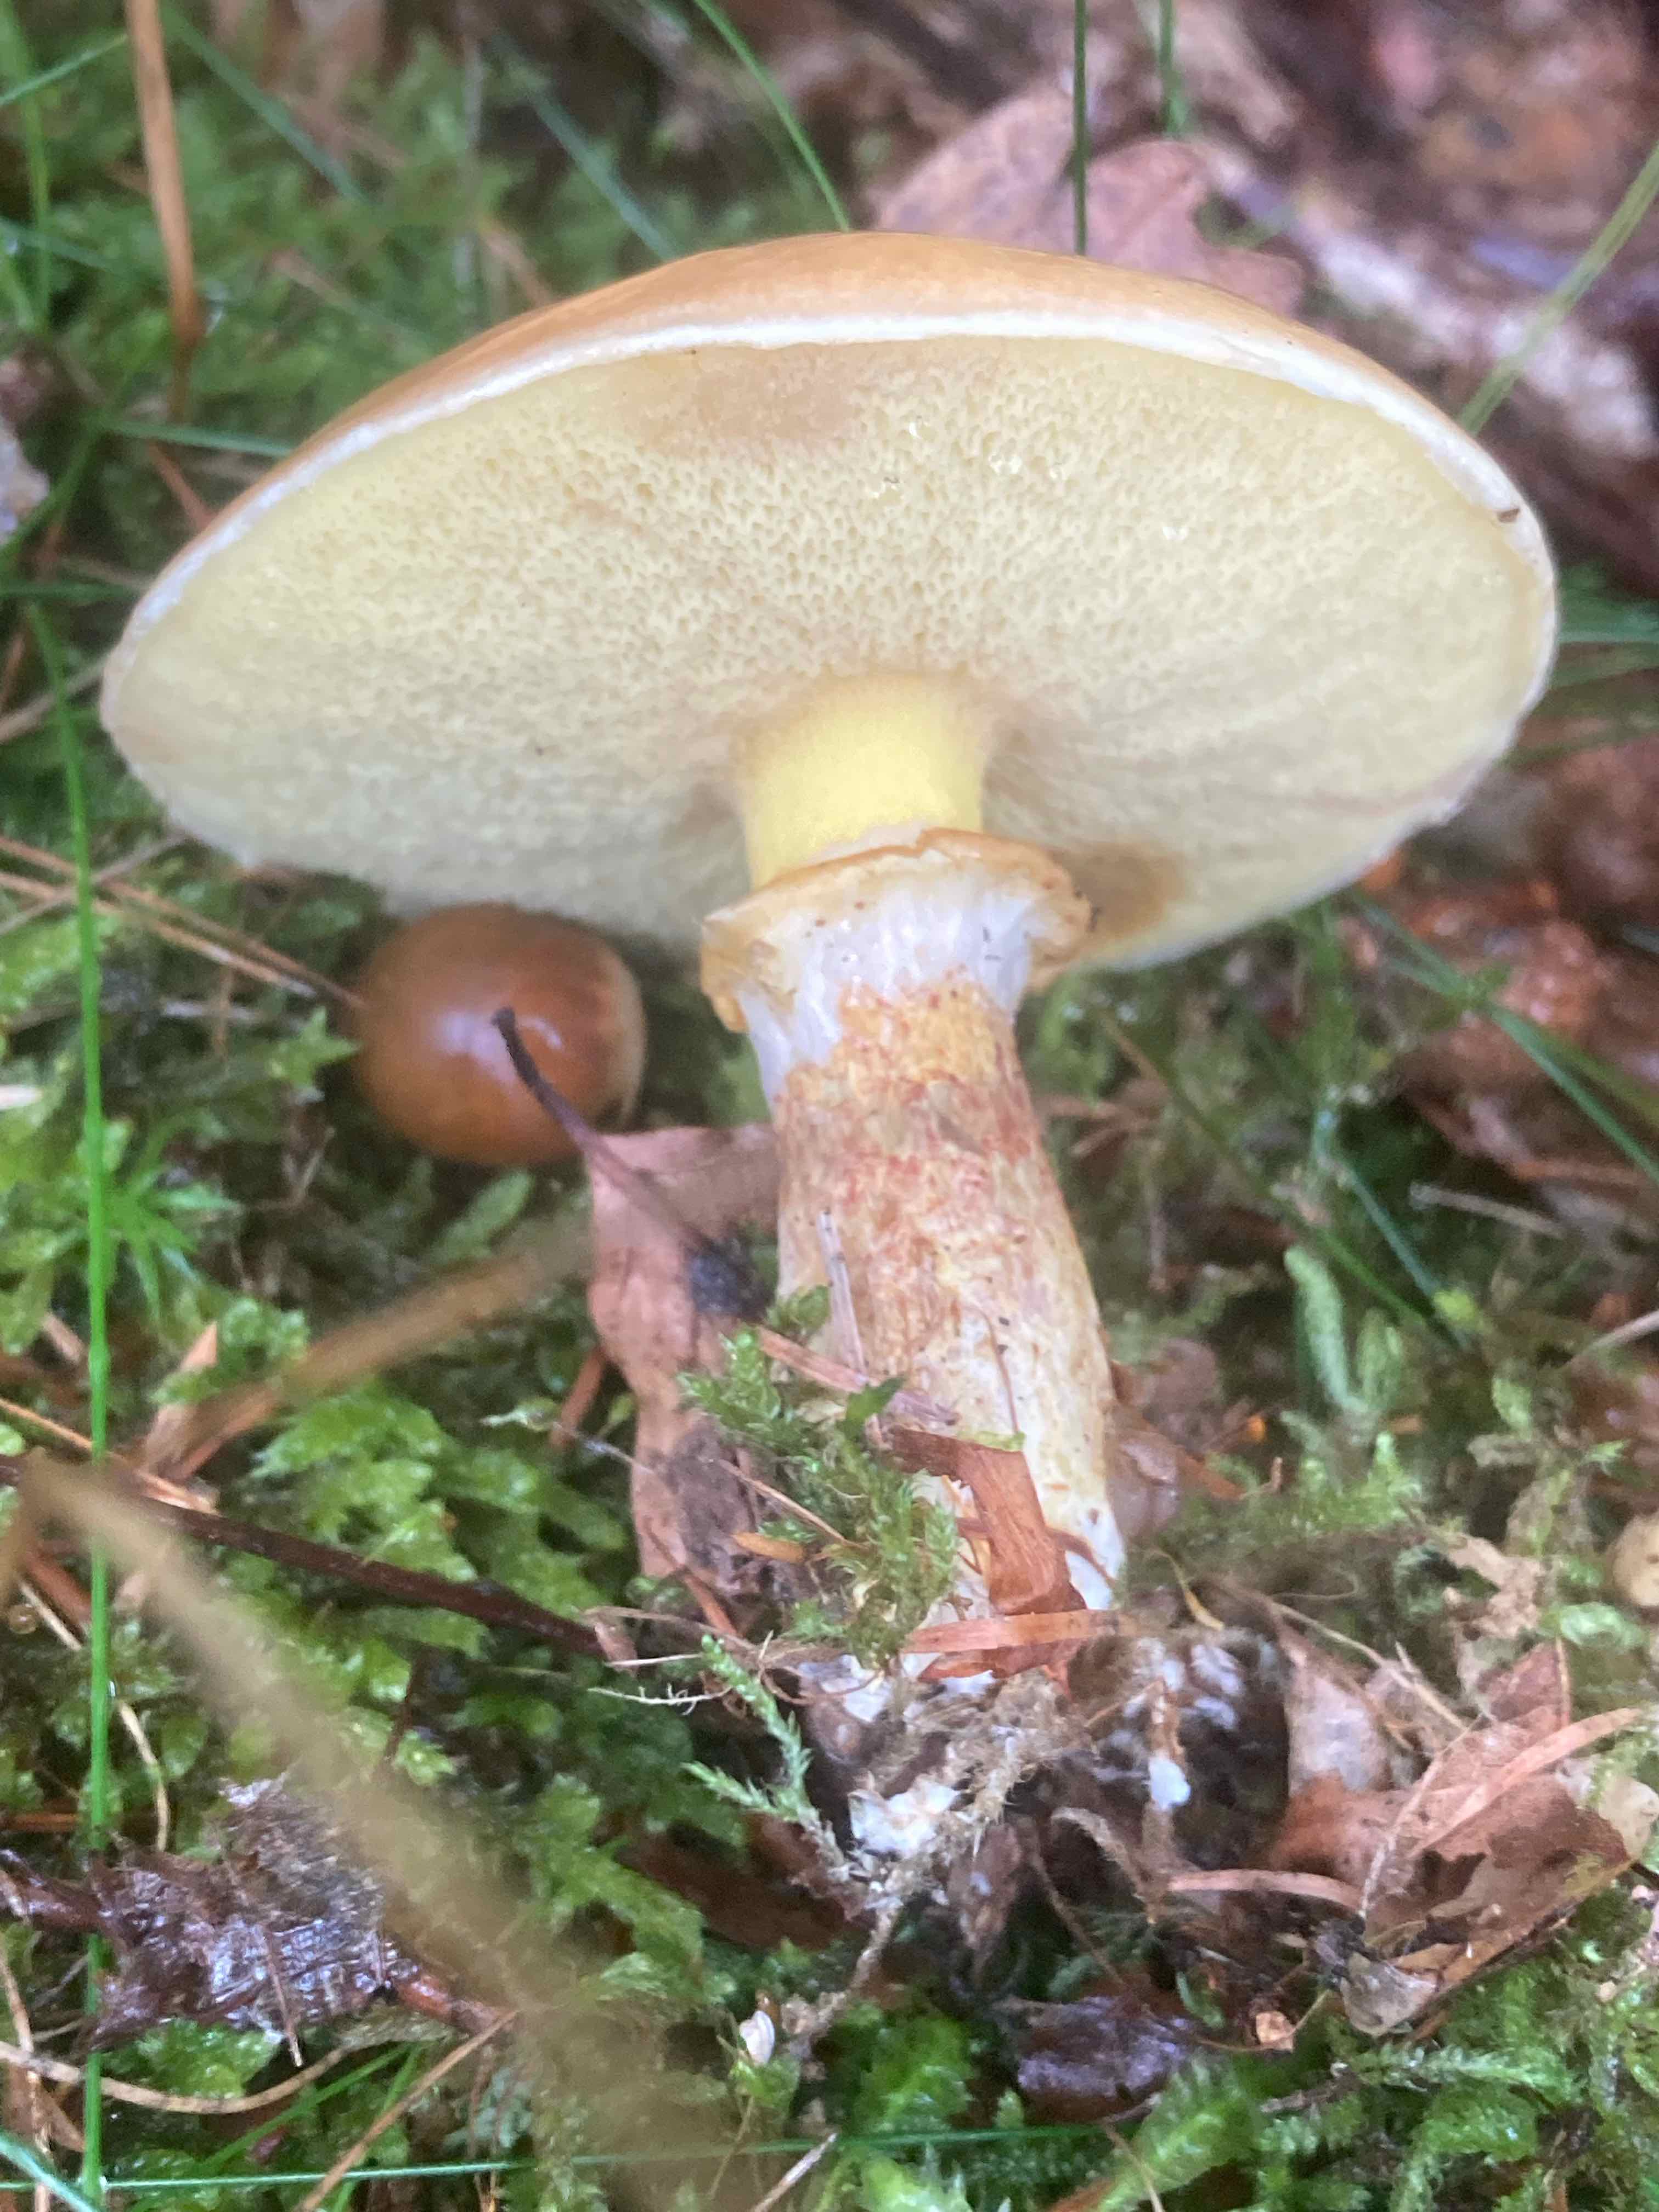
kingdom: Fungi
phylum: Basidiomycota
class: Agaricomycetes
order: Boletales
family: Suillaceae
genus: Suillus
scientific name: Suillus grevillei
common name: lærke-slimrørhat
